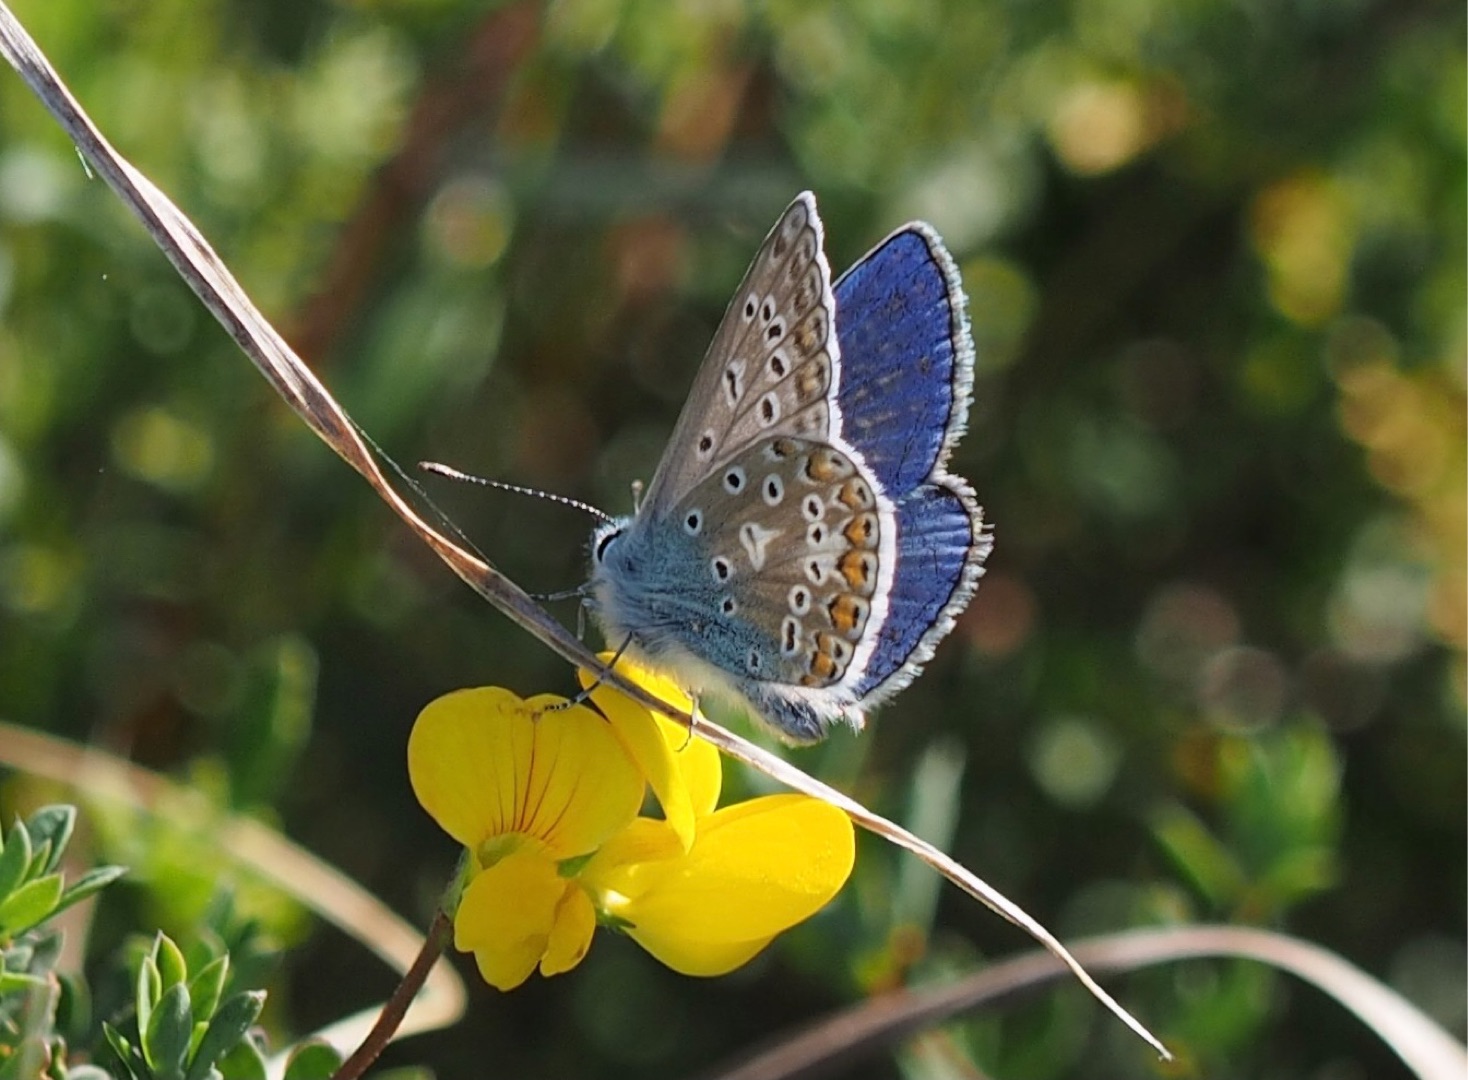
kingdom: Animalia
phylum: Arthropoda
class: Insecta
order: Lepidoptera
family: Lycaenidae
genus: Polyommatus
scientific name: Polyommatus icarus
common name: Almindelig blåfugl
